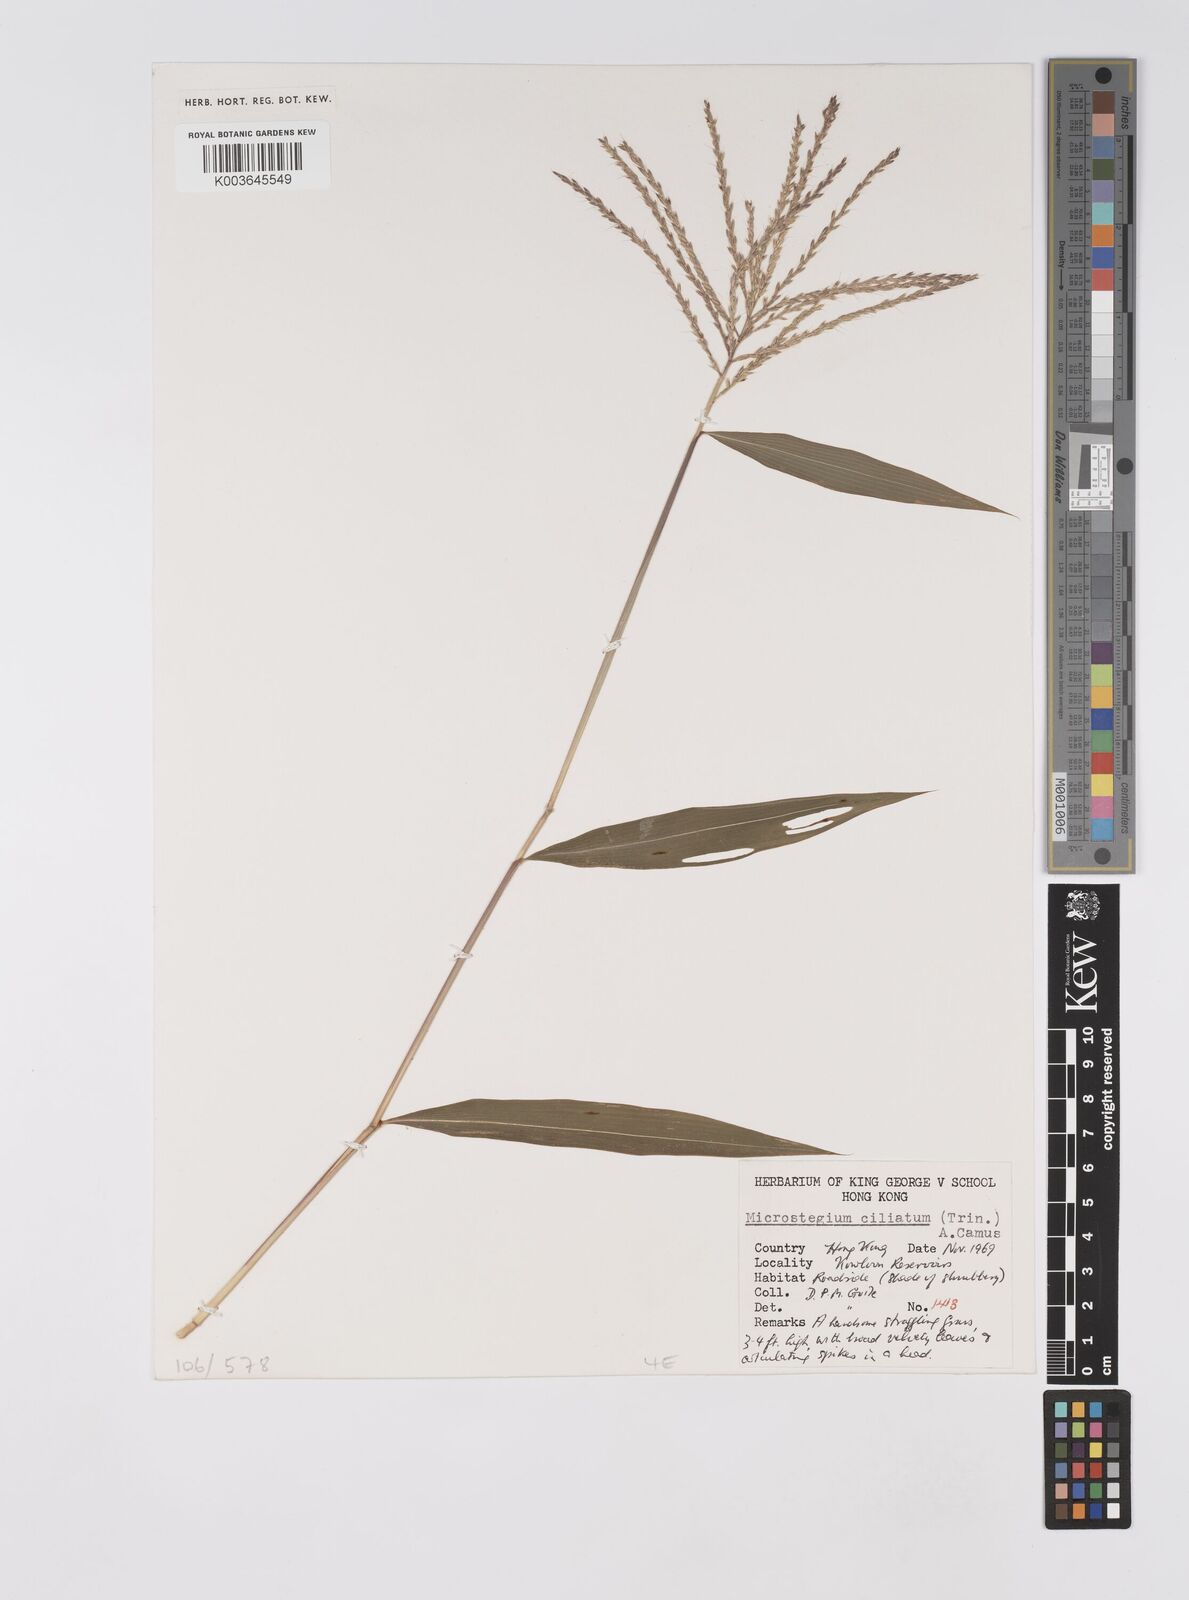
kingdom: Plantae
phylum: Tracheophyta
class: Liliopsida
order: Poales
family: Poaceae
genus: Microstegium
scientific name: Microstegium fasciculatum
